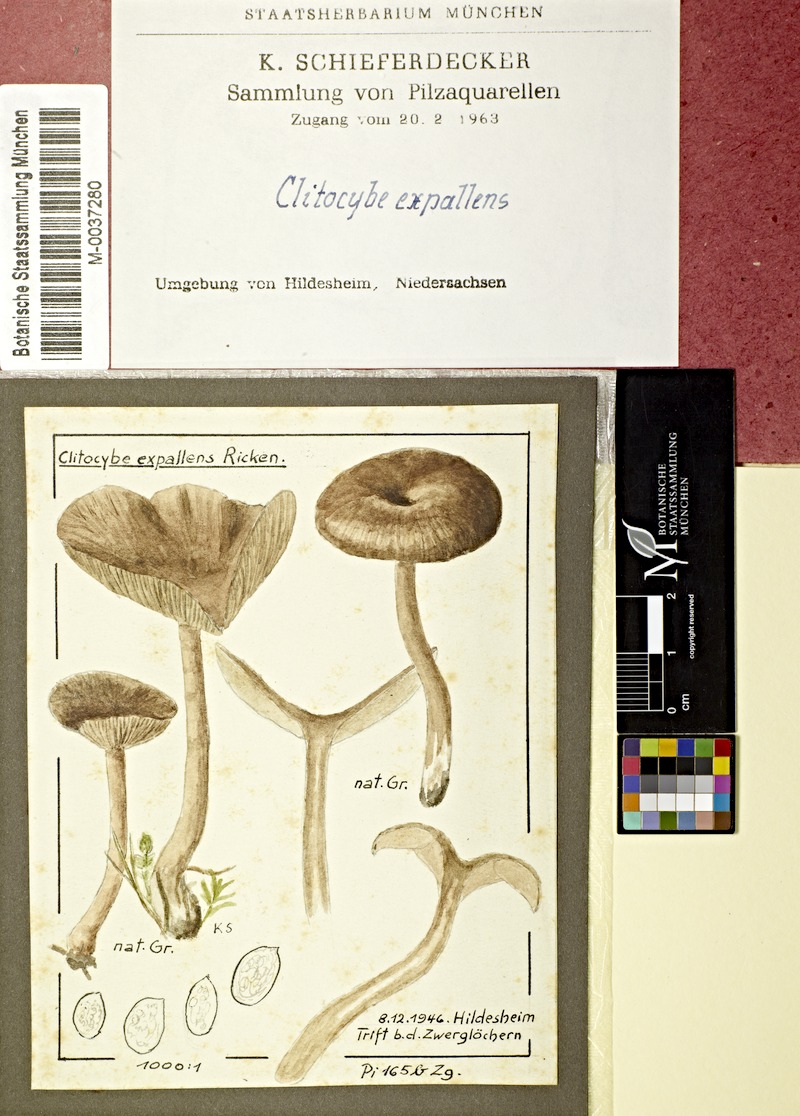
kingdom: Fungi
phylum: Basidiomycota
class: Agaricomycetes
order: Agaricales
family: Pseudoclitocybaceae
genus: Pseudoclitocybe
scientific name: Pseudoclitocybe expallens
